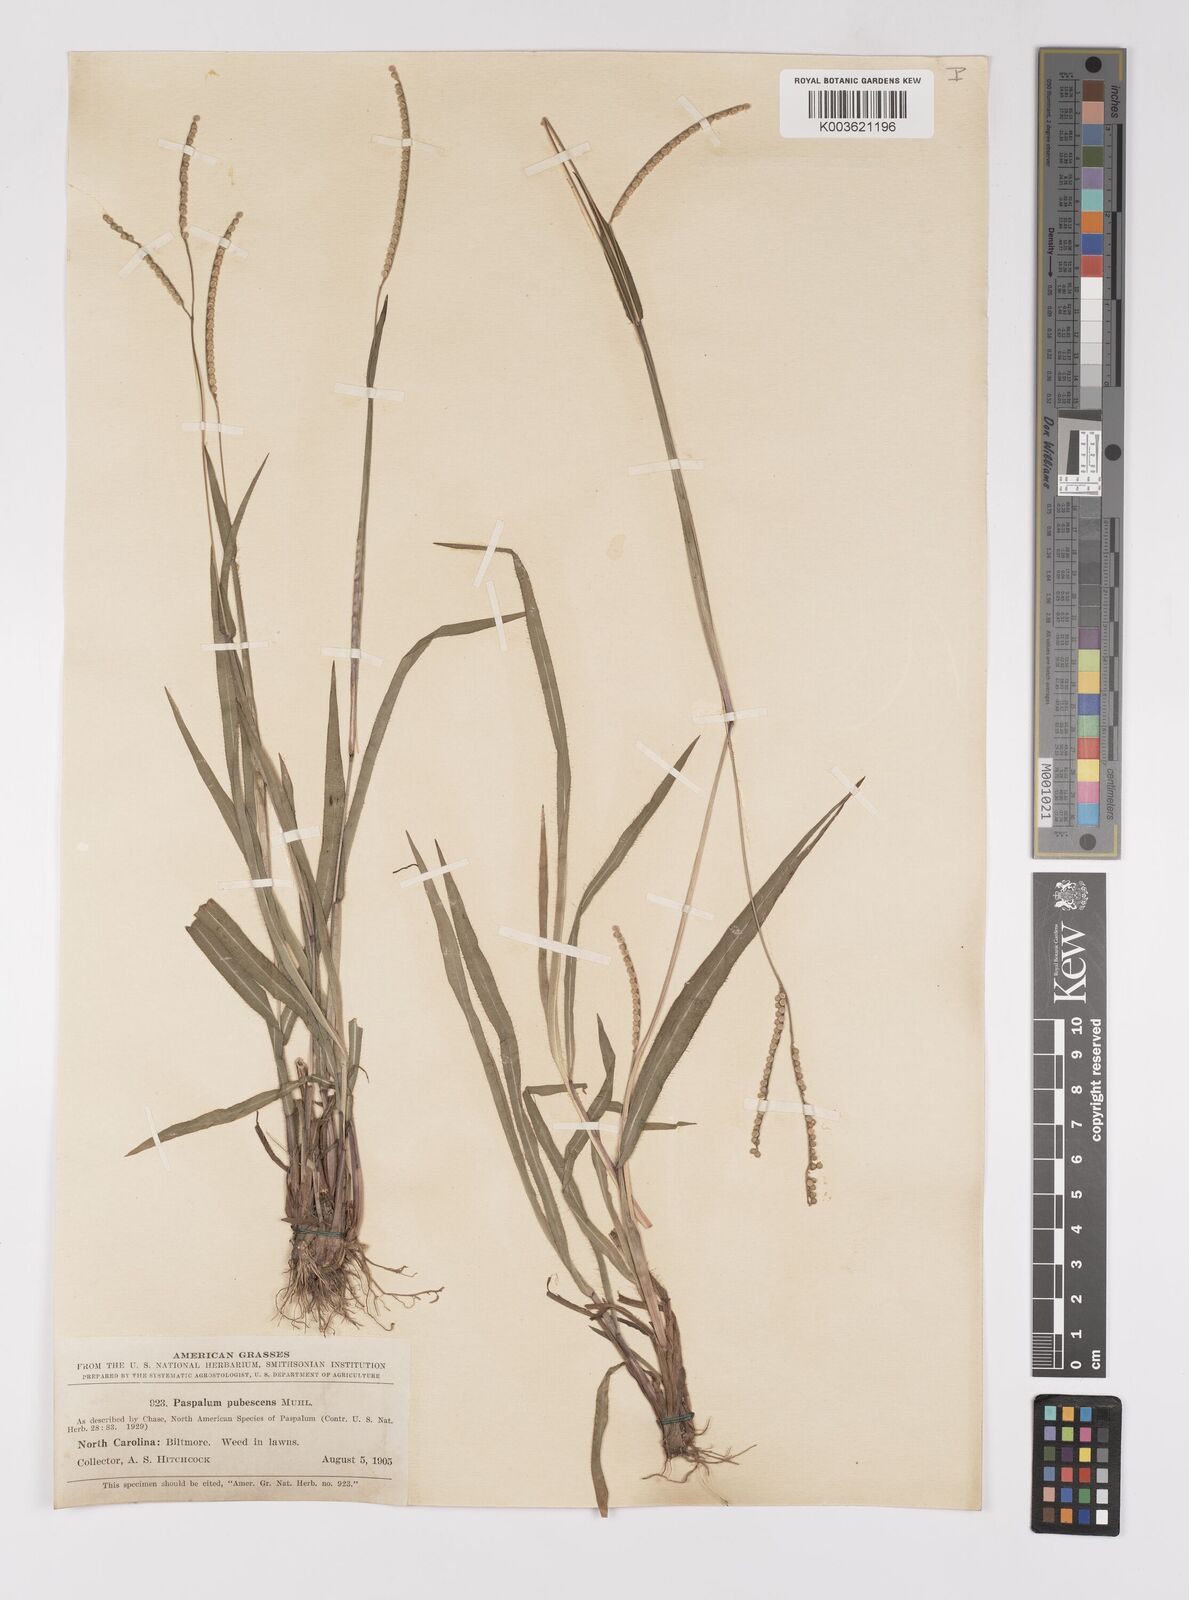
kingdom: Plantae
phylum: Tracheophyta
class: Liliopsida
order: Poales
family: Poaceae
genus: Paspalum
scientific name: Paspalum setaceum
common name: Slender paspalum
